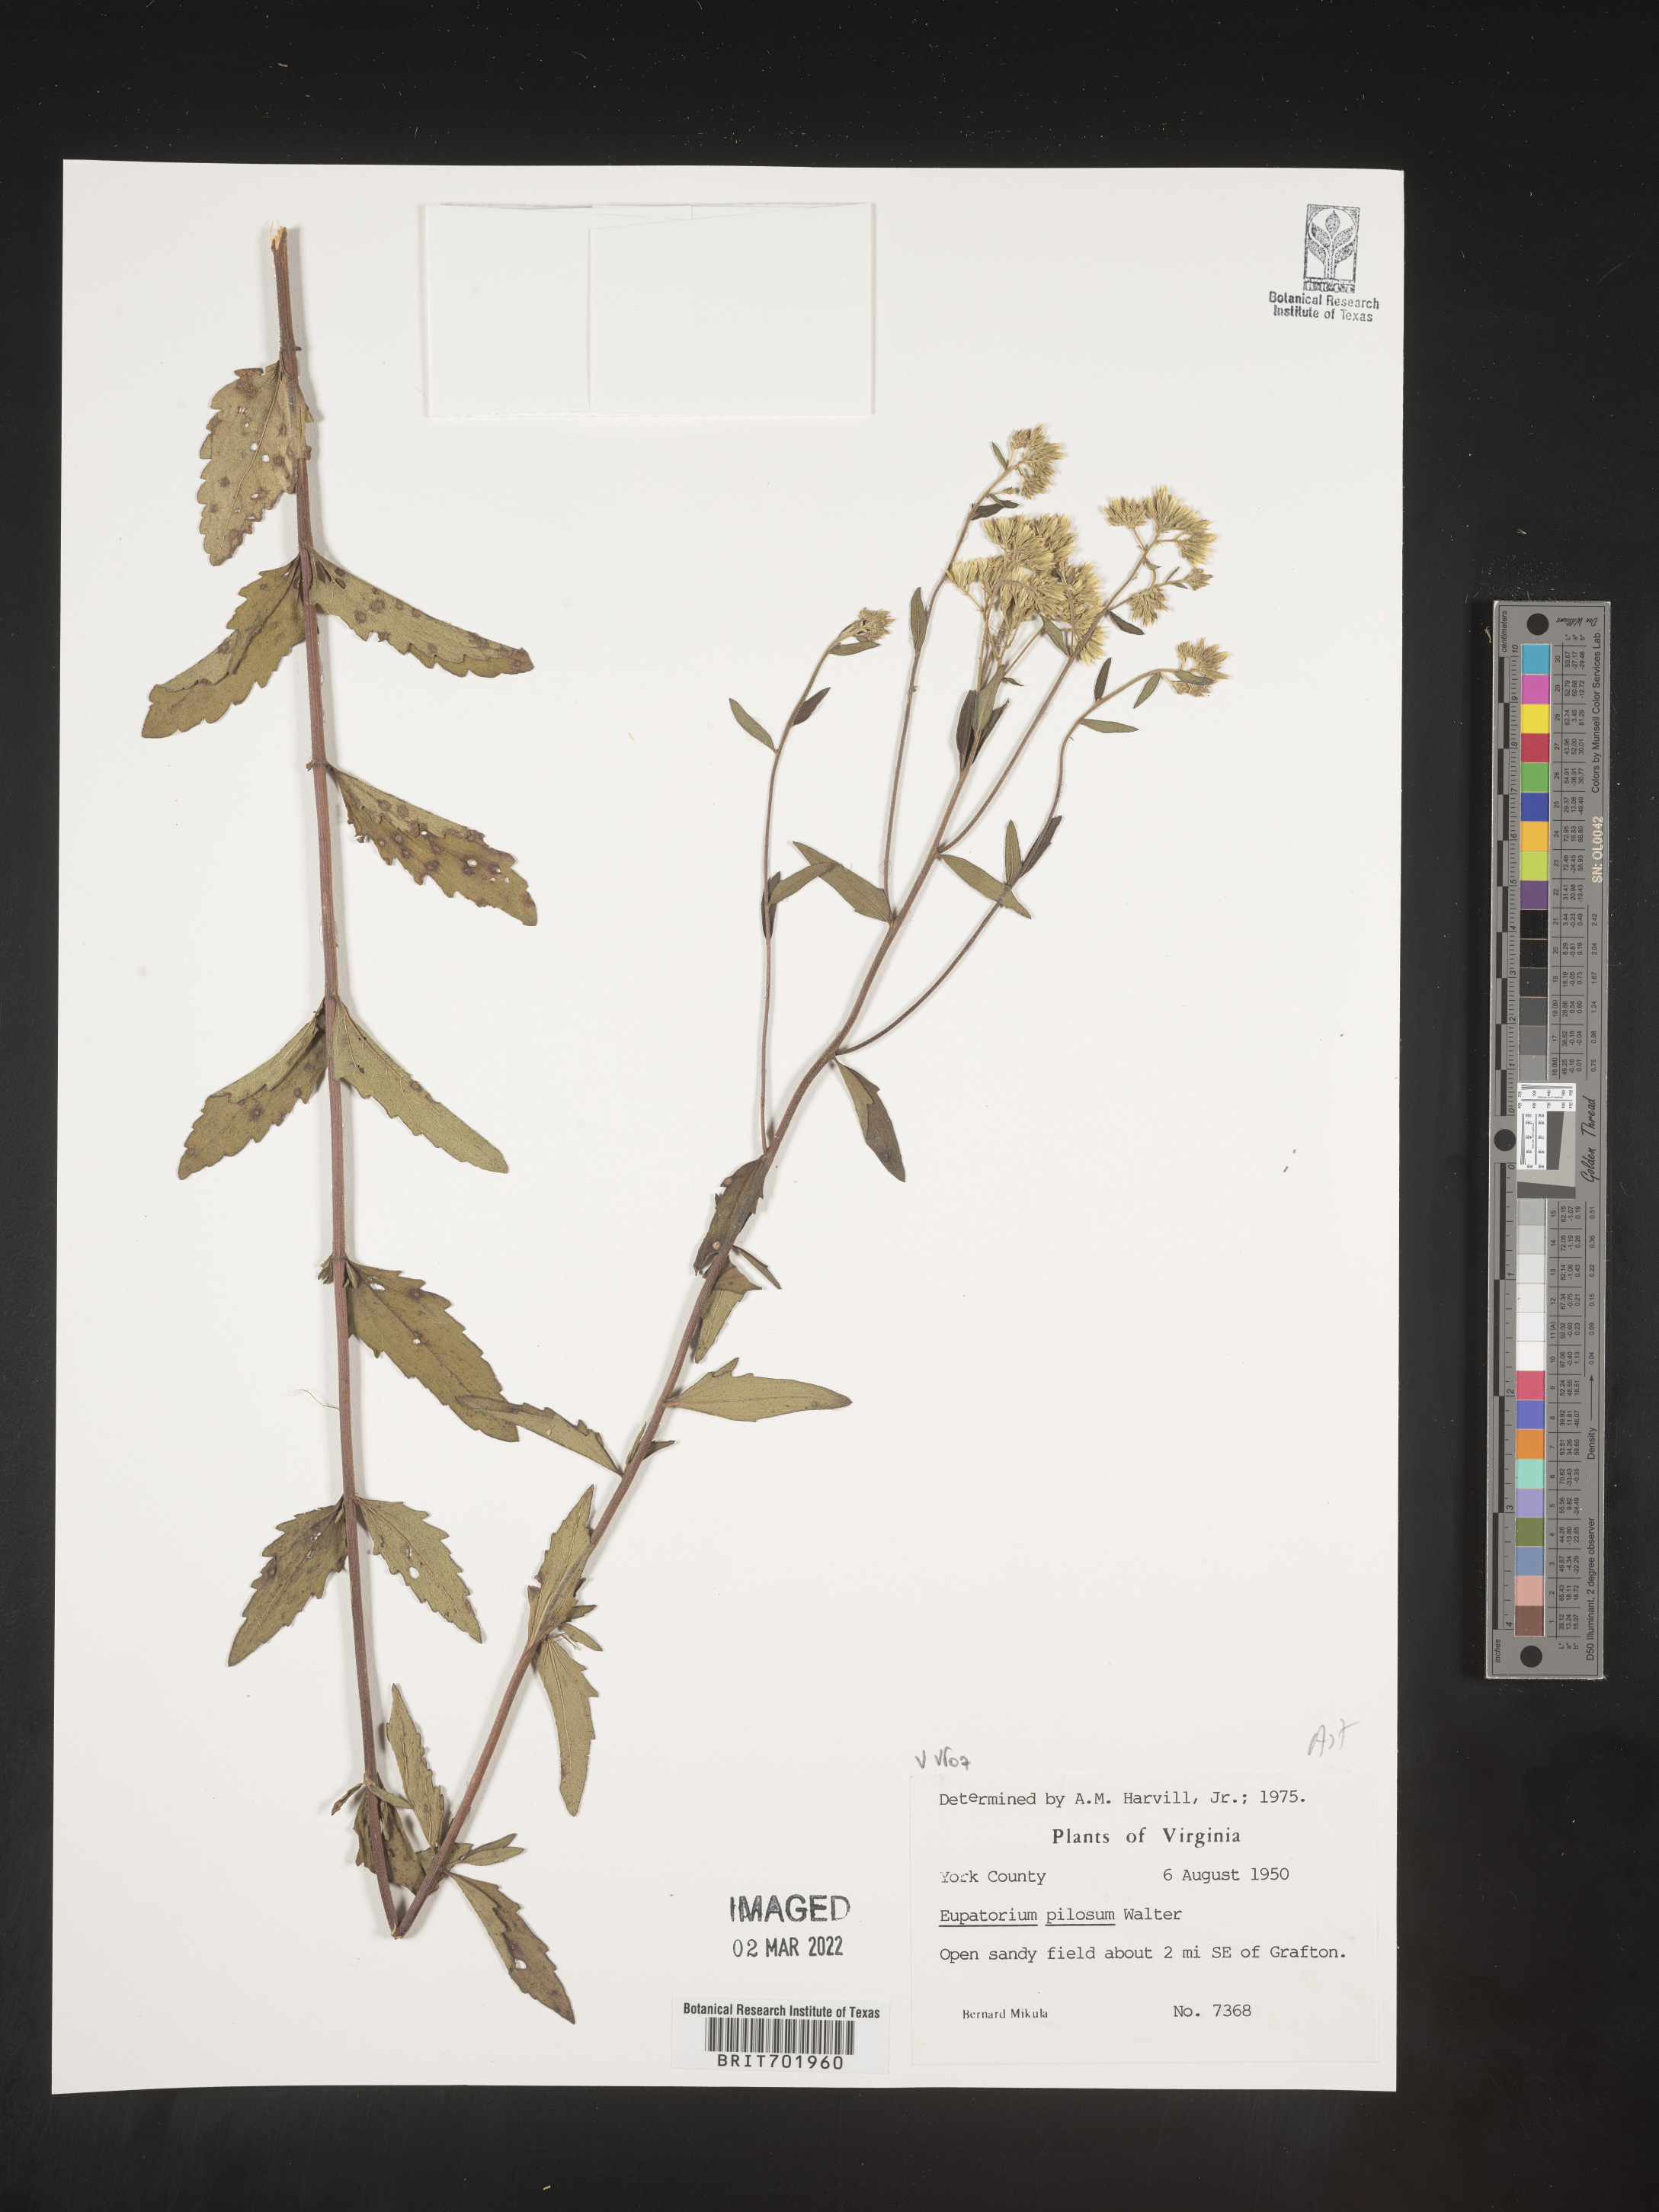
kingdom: Plantae
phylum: Tracheophyta
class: Magnoliopsida
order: Asterales
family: Asteraceae
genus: Eupatorium
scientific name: Eupatorium pilosum
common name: Rough boneset
